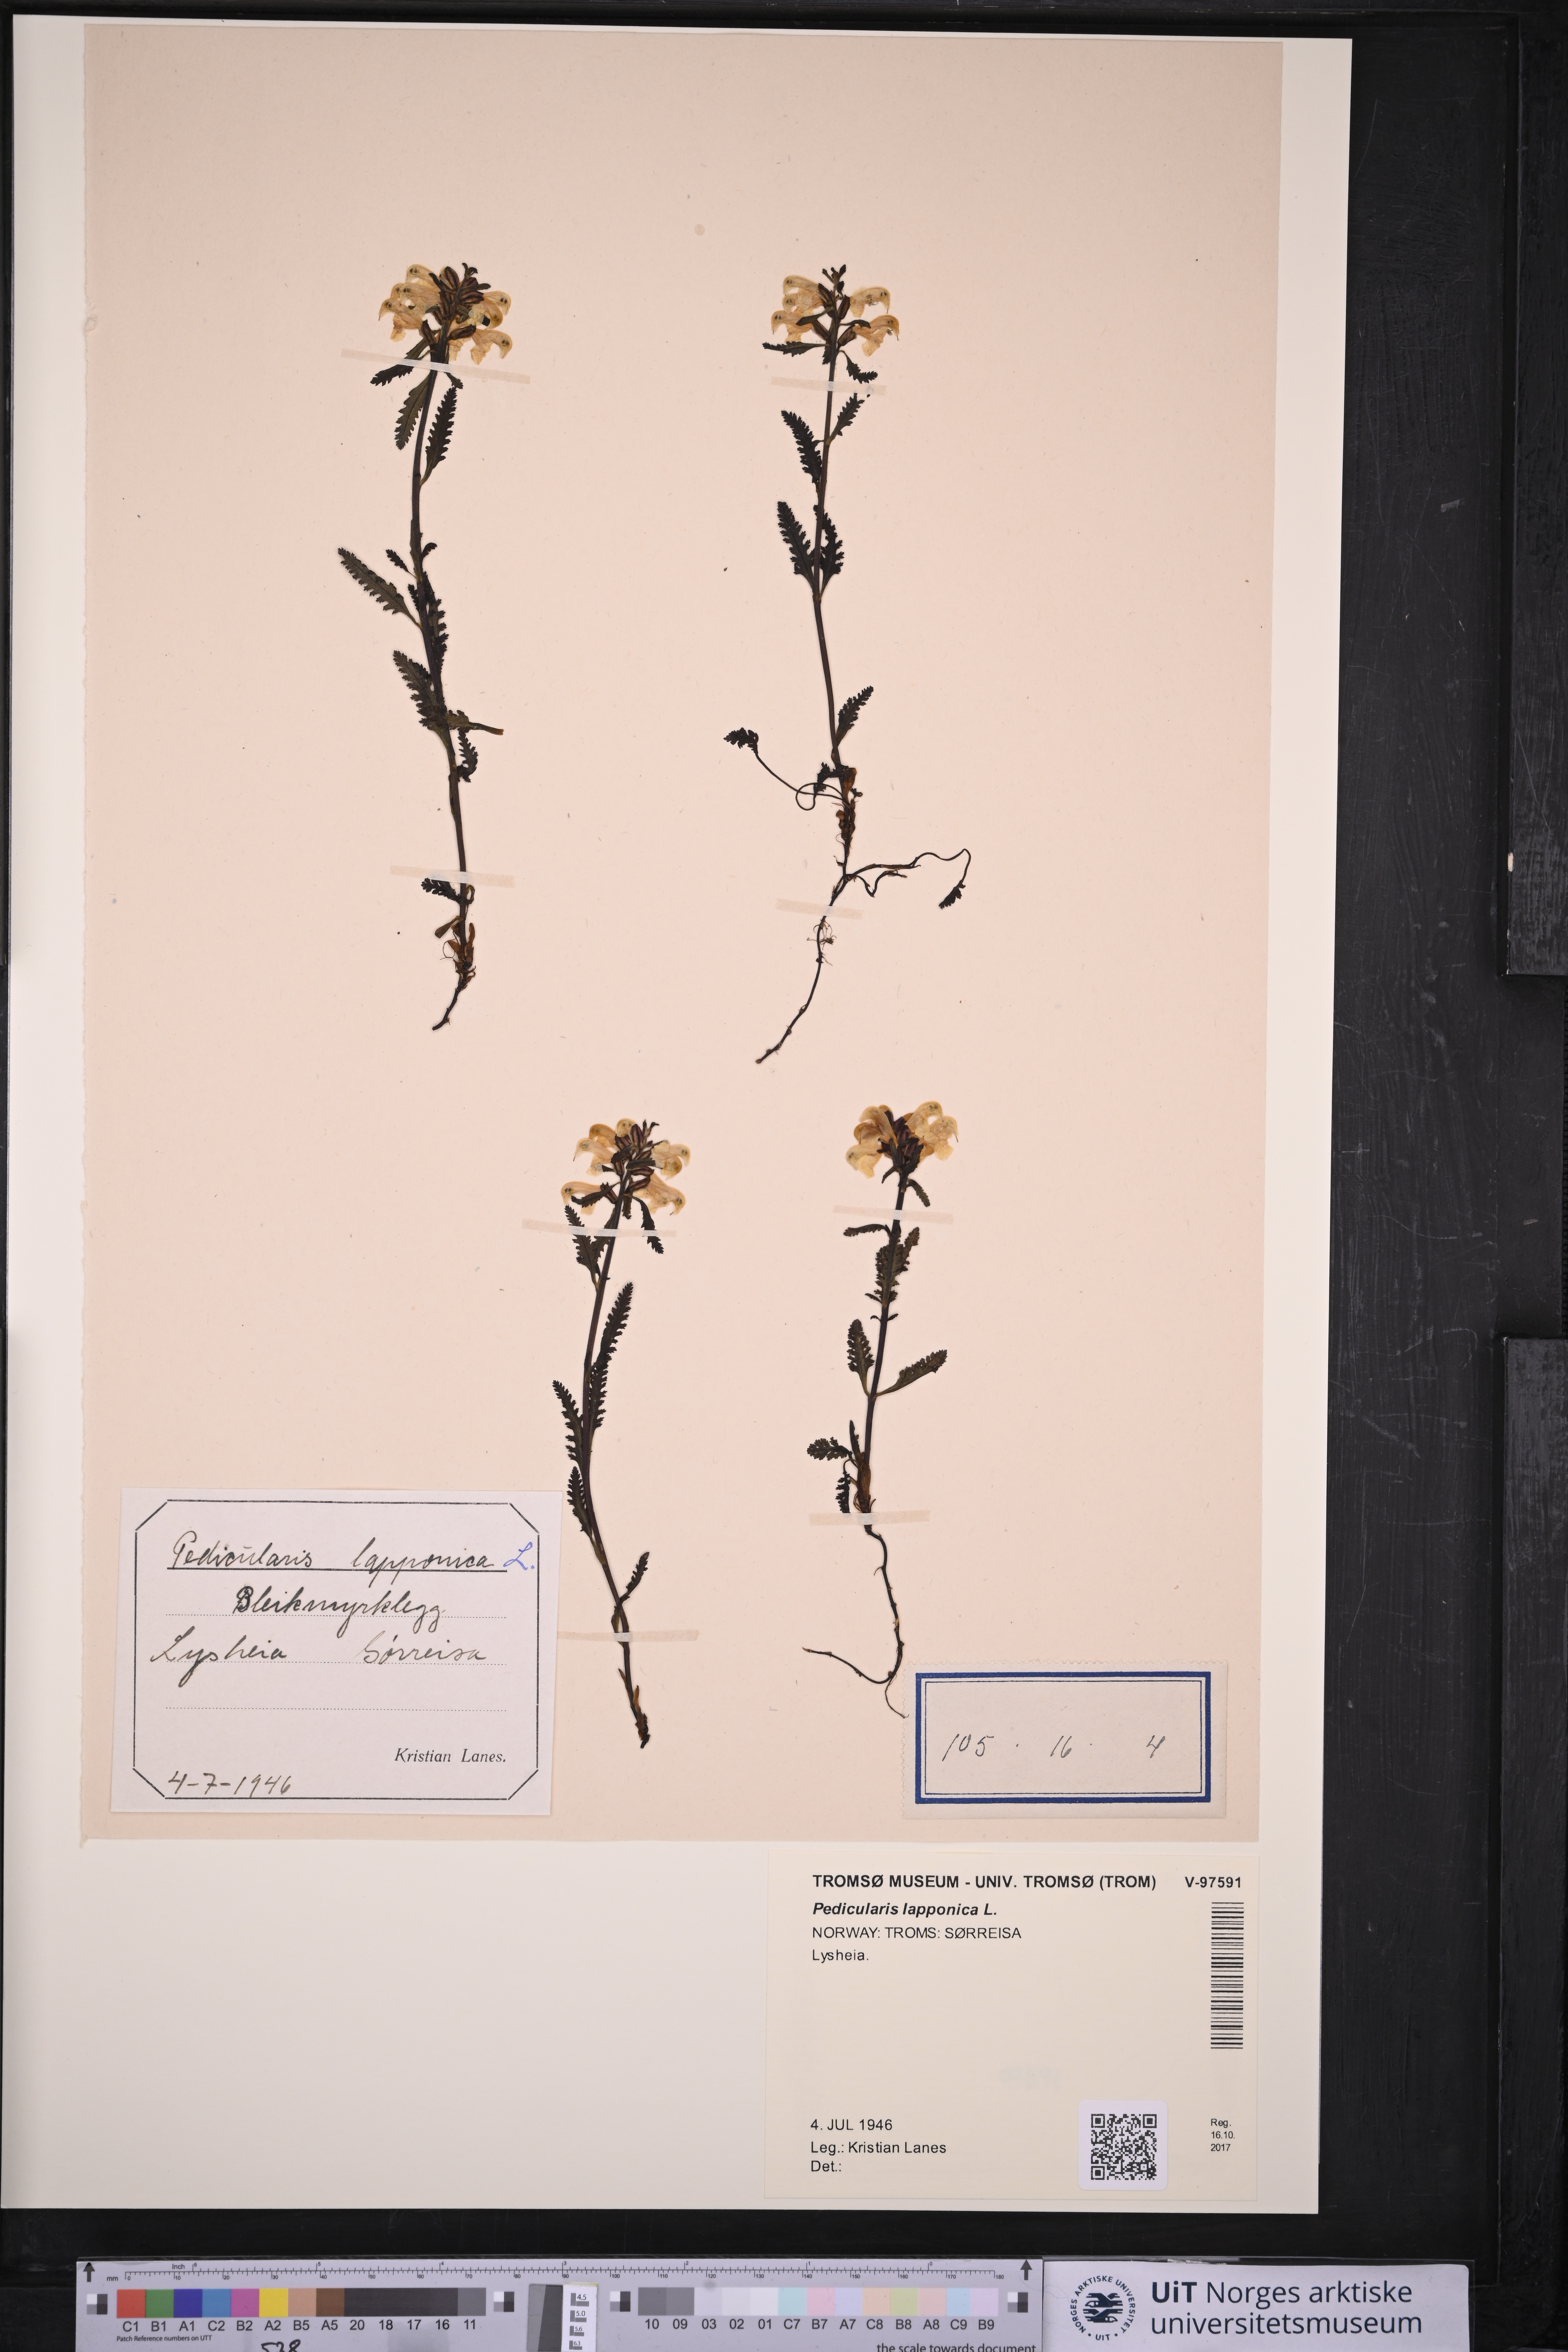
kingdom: Plantae
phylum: Tracheophyta
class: Magnoliopsida
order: Lamiales
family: Orobanchaceae
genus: Pedicularis
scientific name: Pedicularis lapponica
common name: Lapland lousewort
